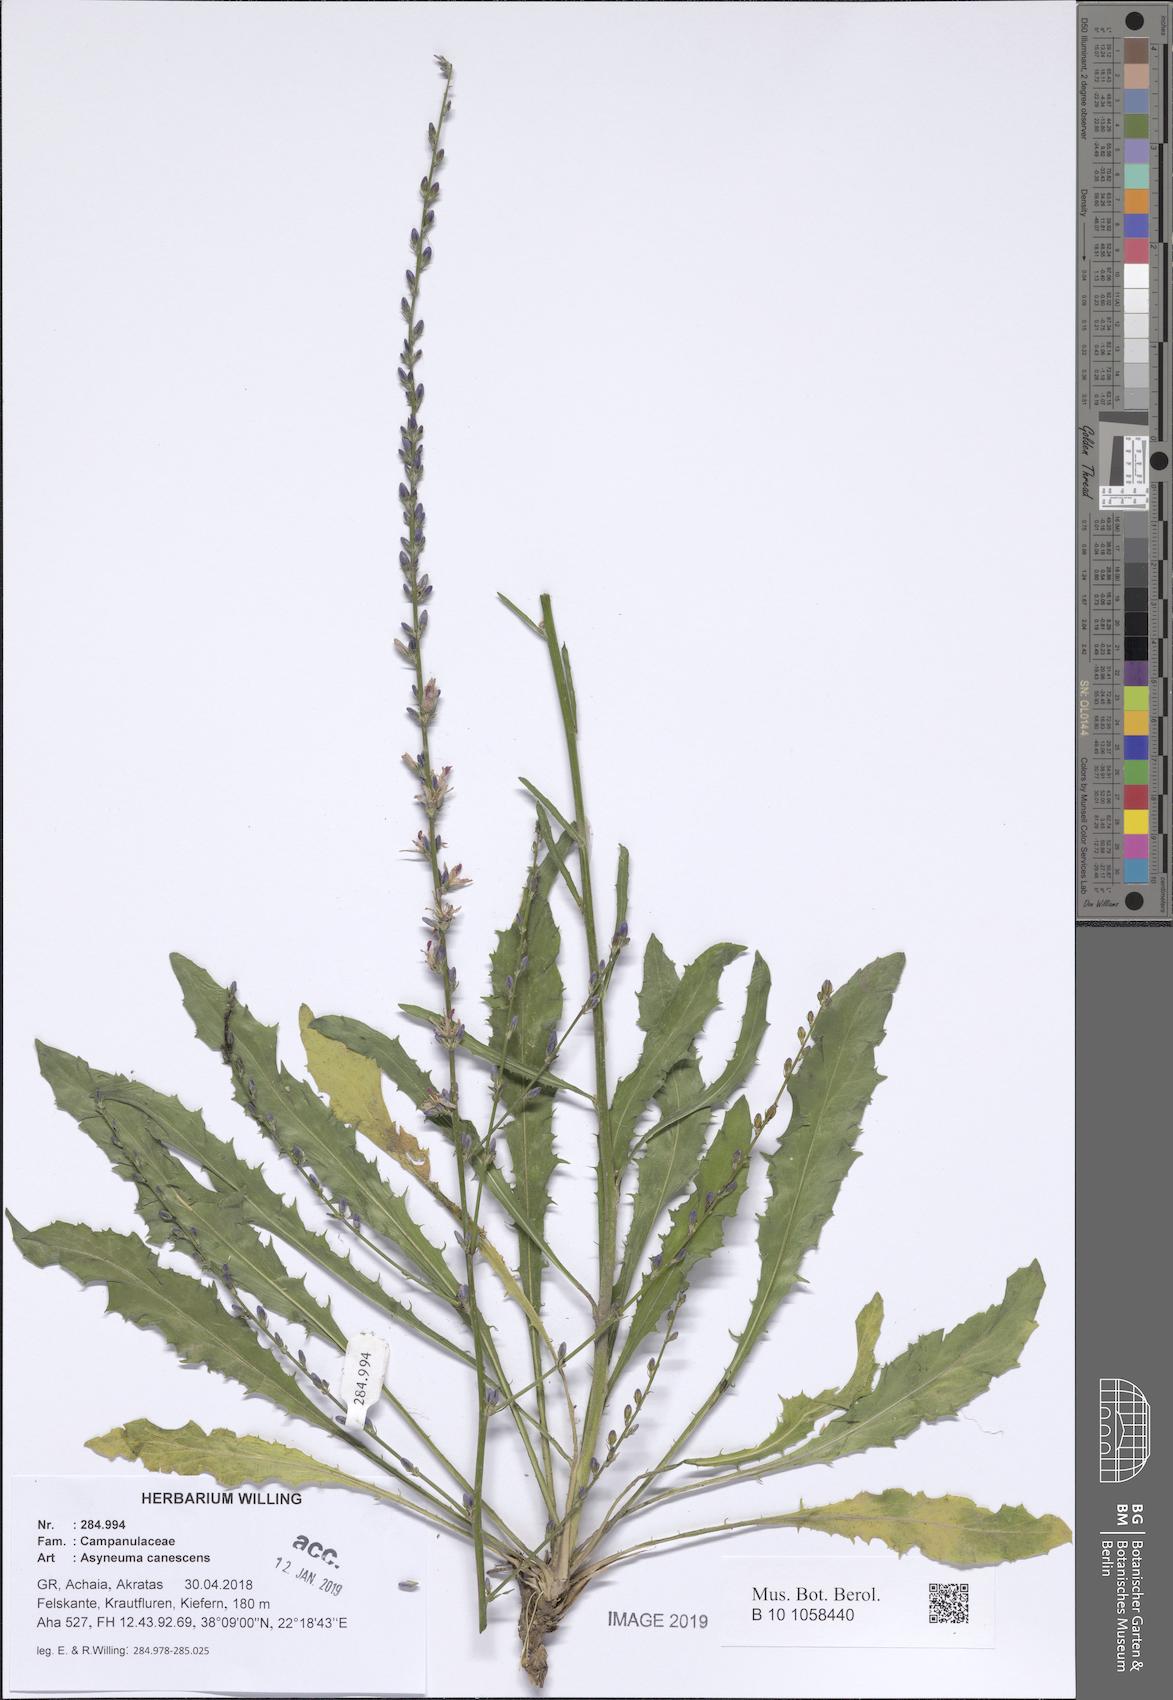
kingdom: Plantae
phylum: Tracheophyta
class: Magnoliopsida
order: Asterales
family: Campanulaceae
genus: Asyneuma
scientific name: Asyneuma canescens
